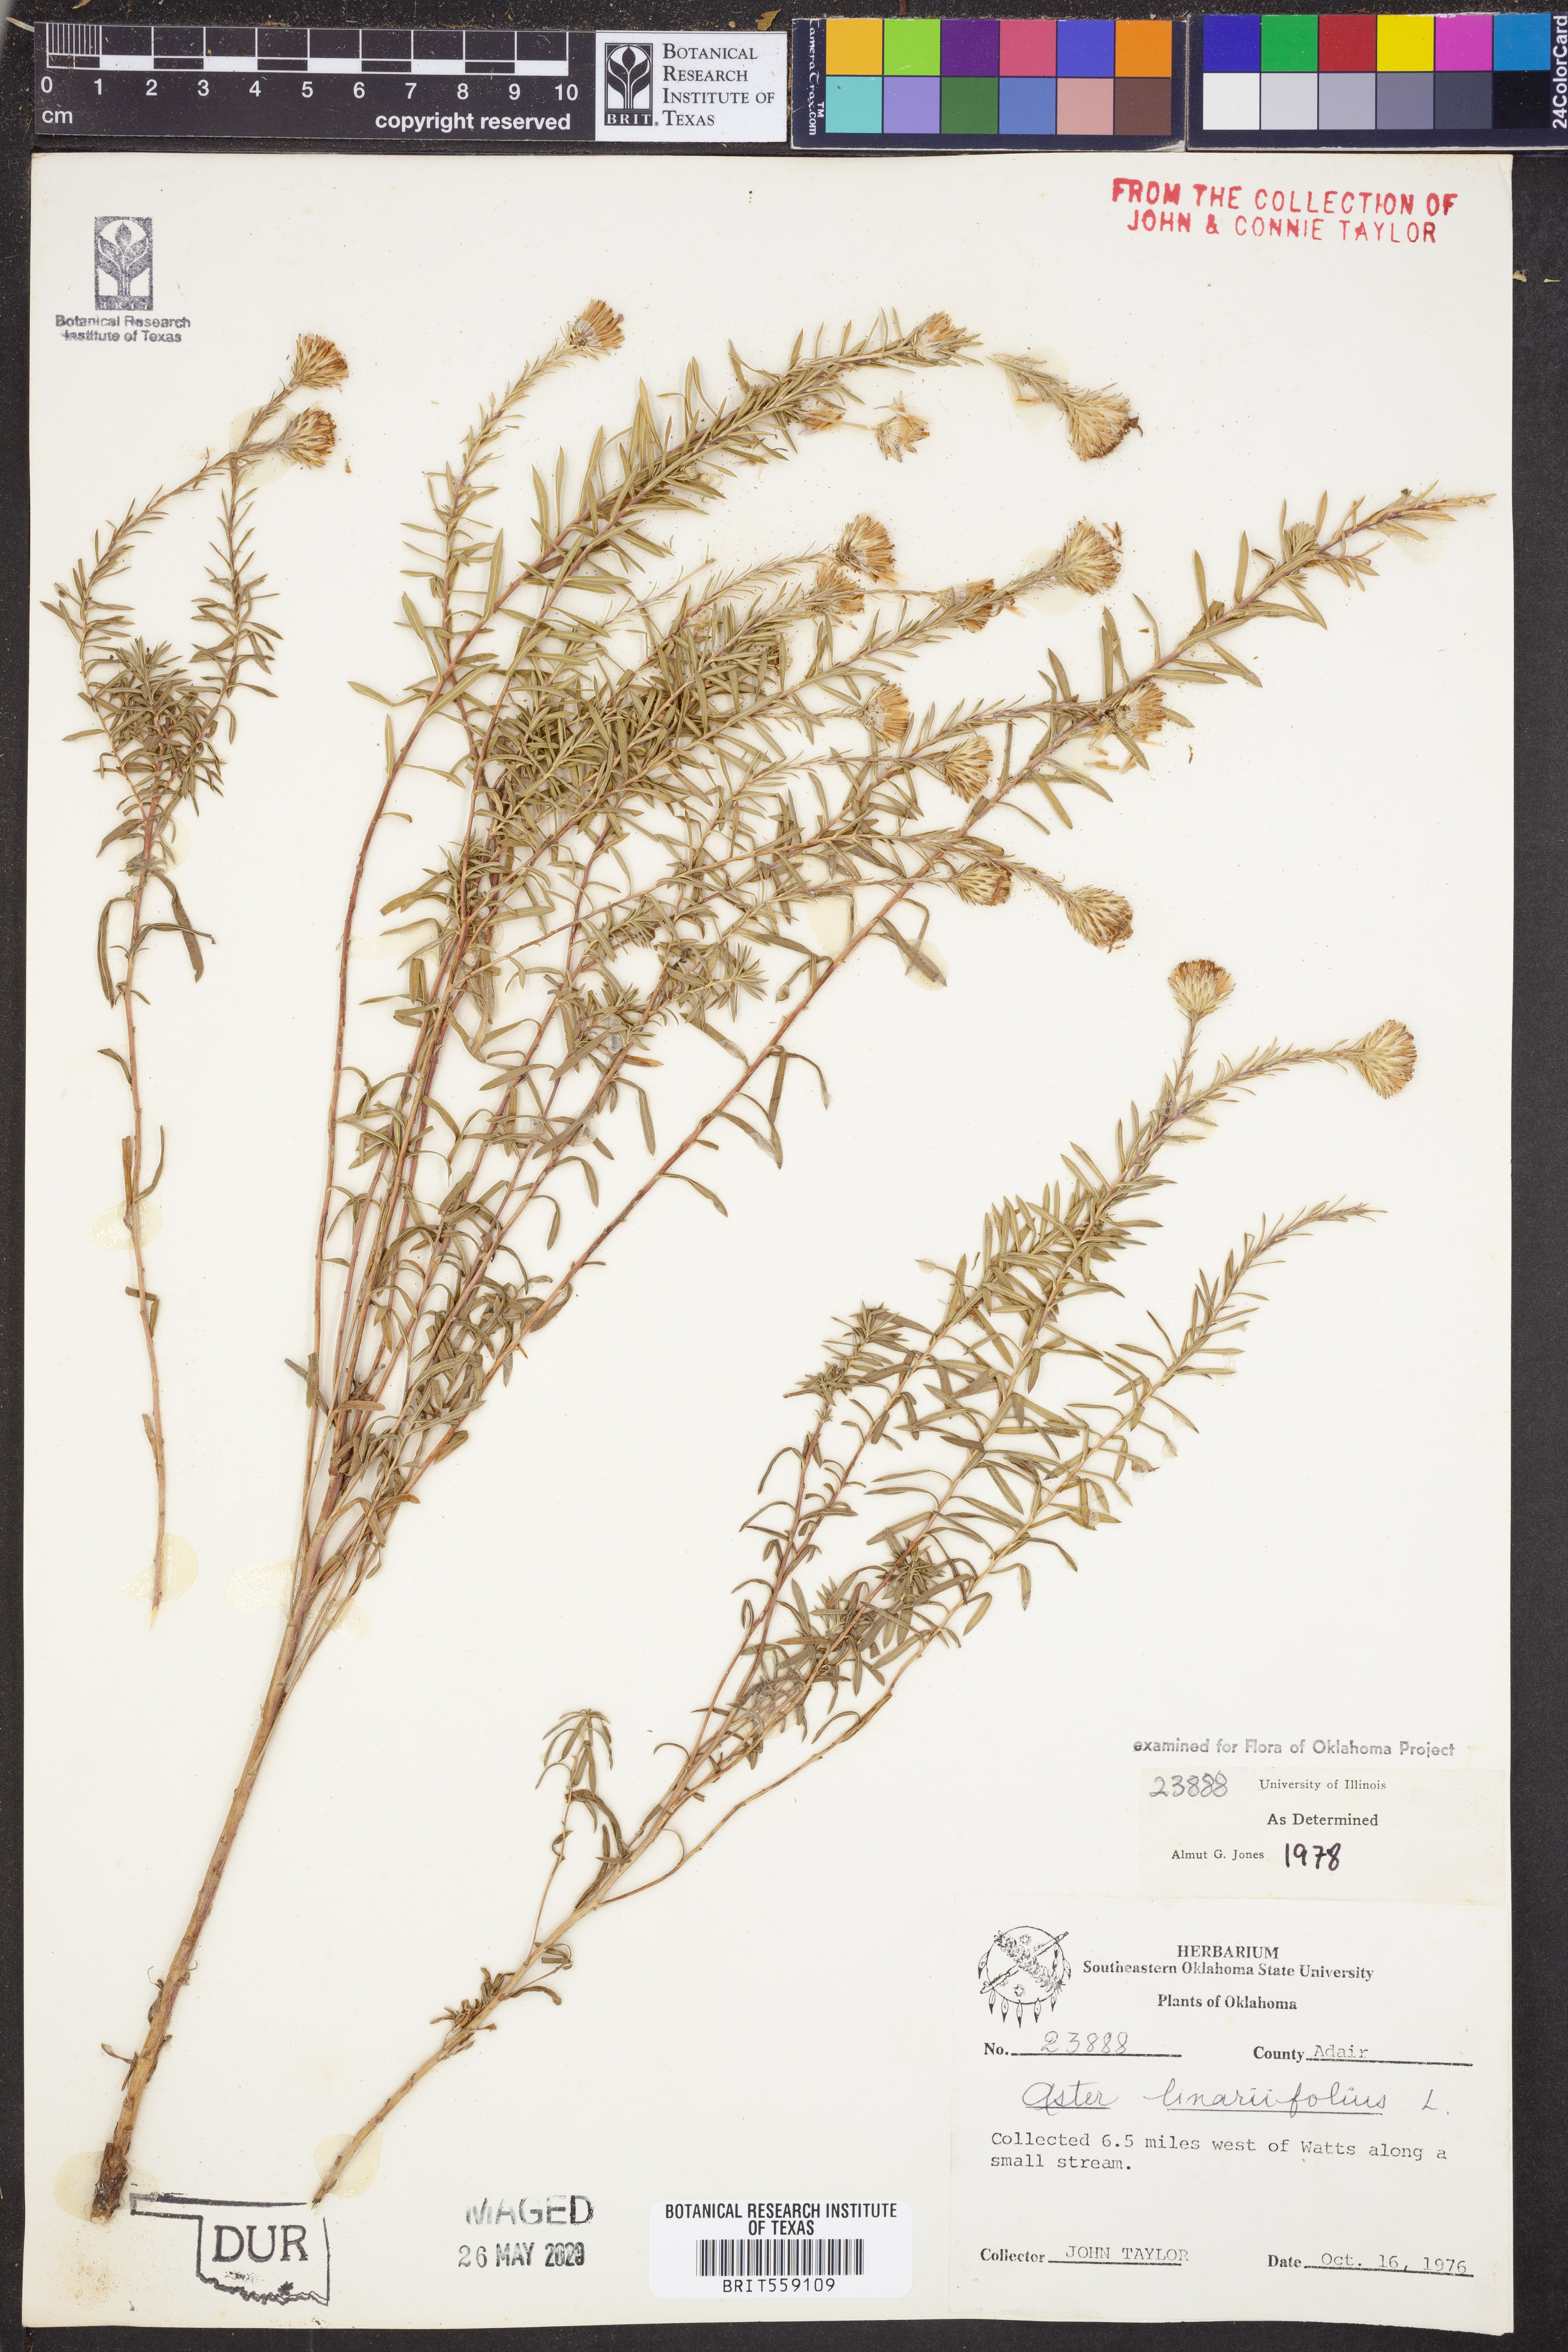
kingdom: Plantae
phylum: Tracheophyta
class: Magnoliopsida
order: Asterales
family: Asteraceae
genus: Ionactis
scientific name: Ionactis linariifolia
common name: Flax-leaf aster
